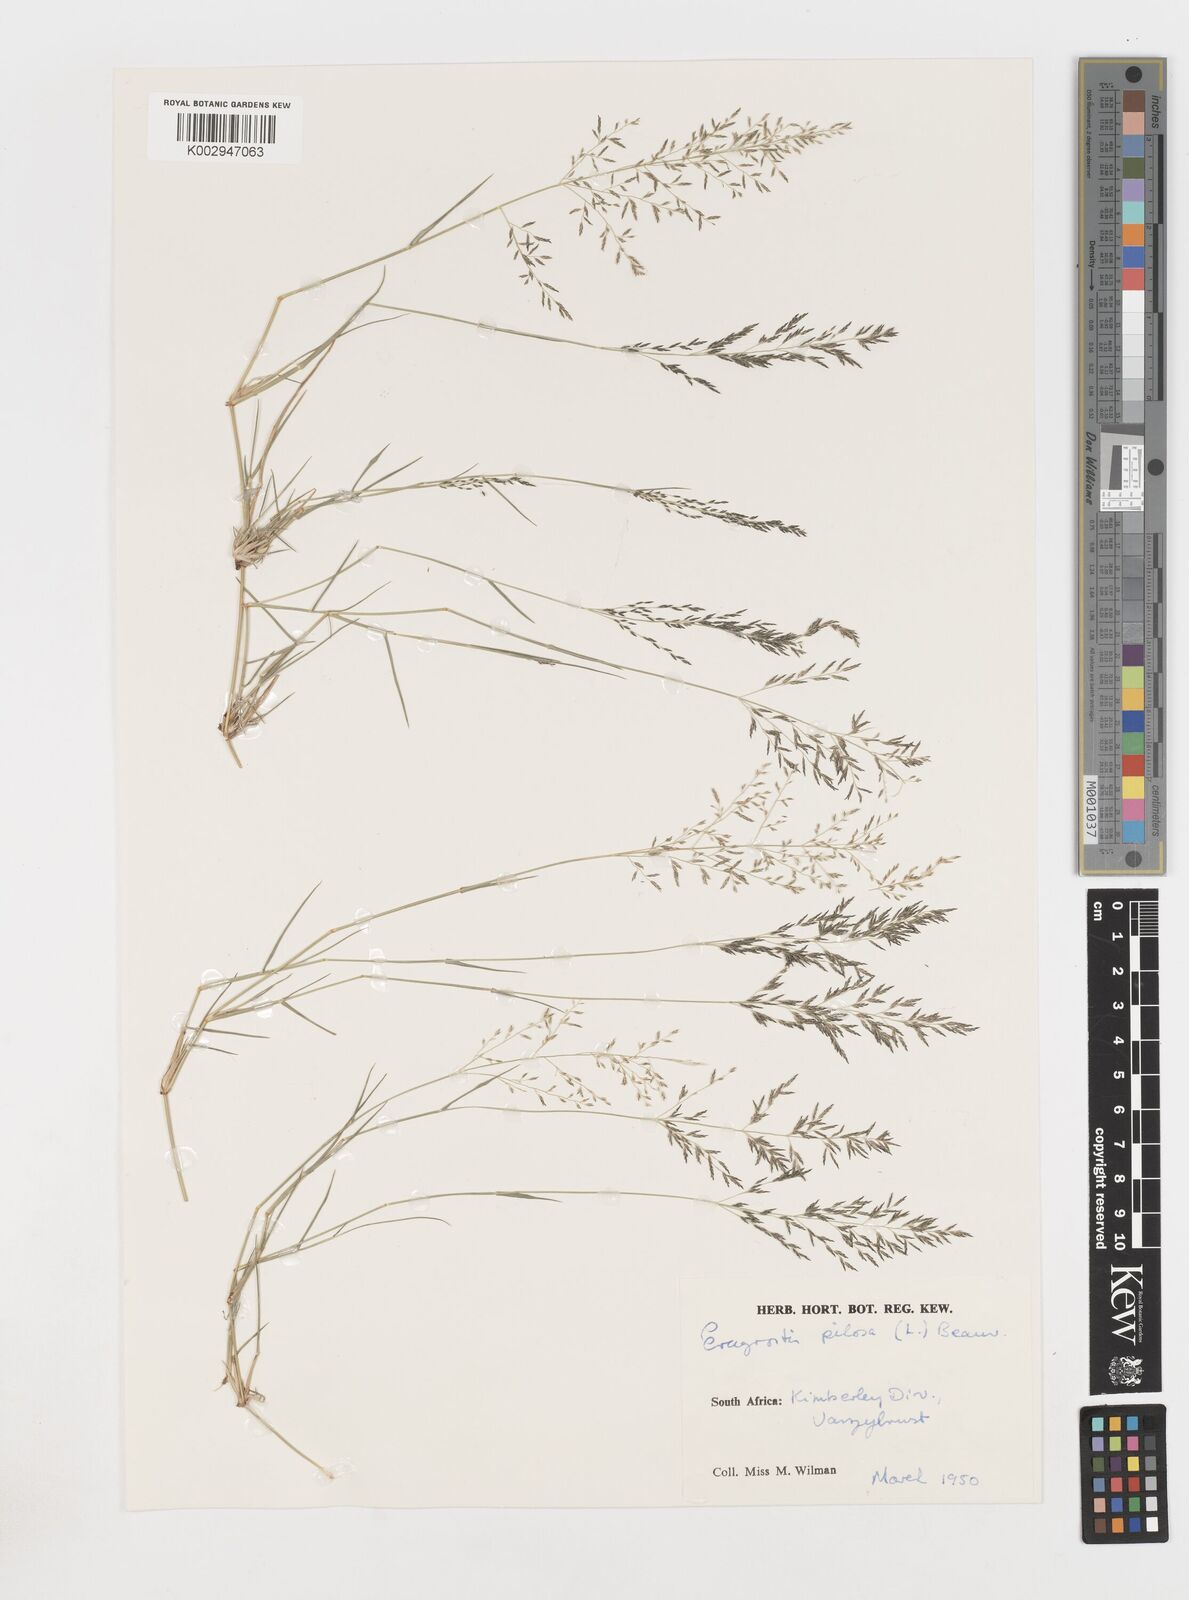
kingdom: Plantae
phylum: Tracheophyta
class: Liliopsida
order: Poales
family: Poaceae
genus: Eragrostis
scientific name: Eragrostis pilosa
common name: Indian lovegrass
